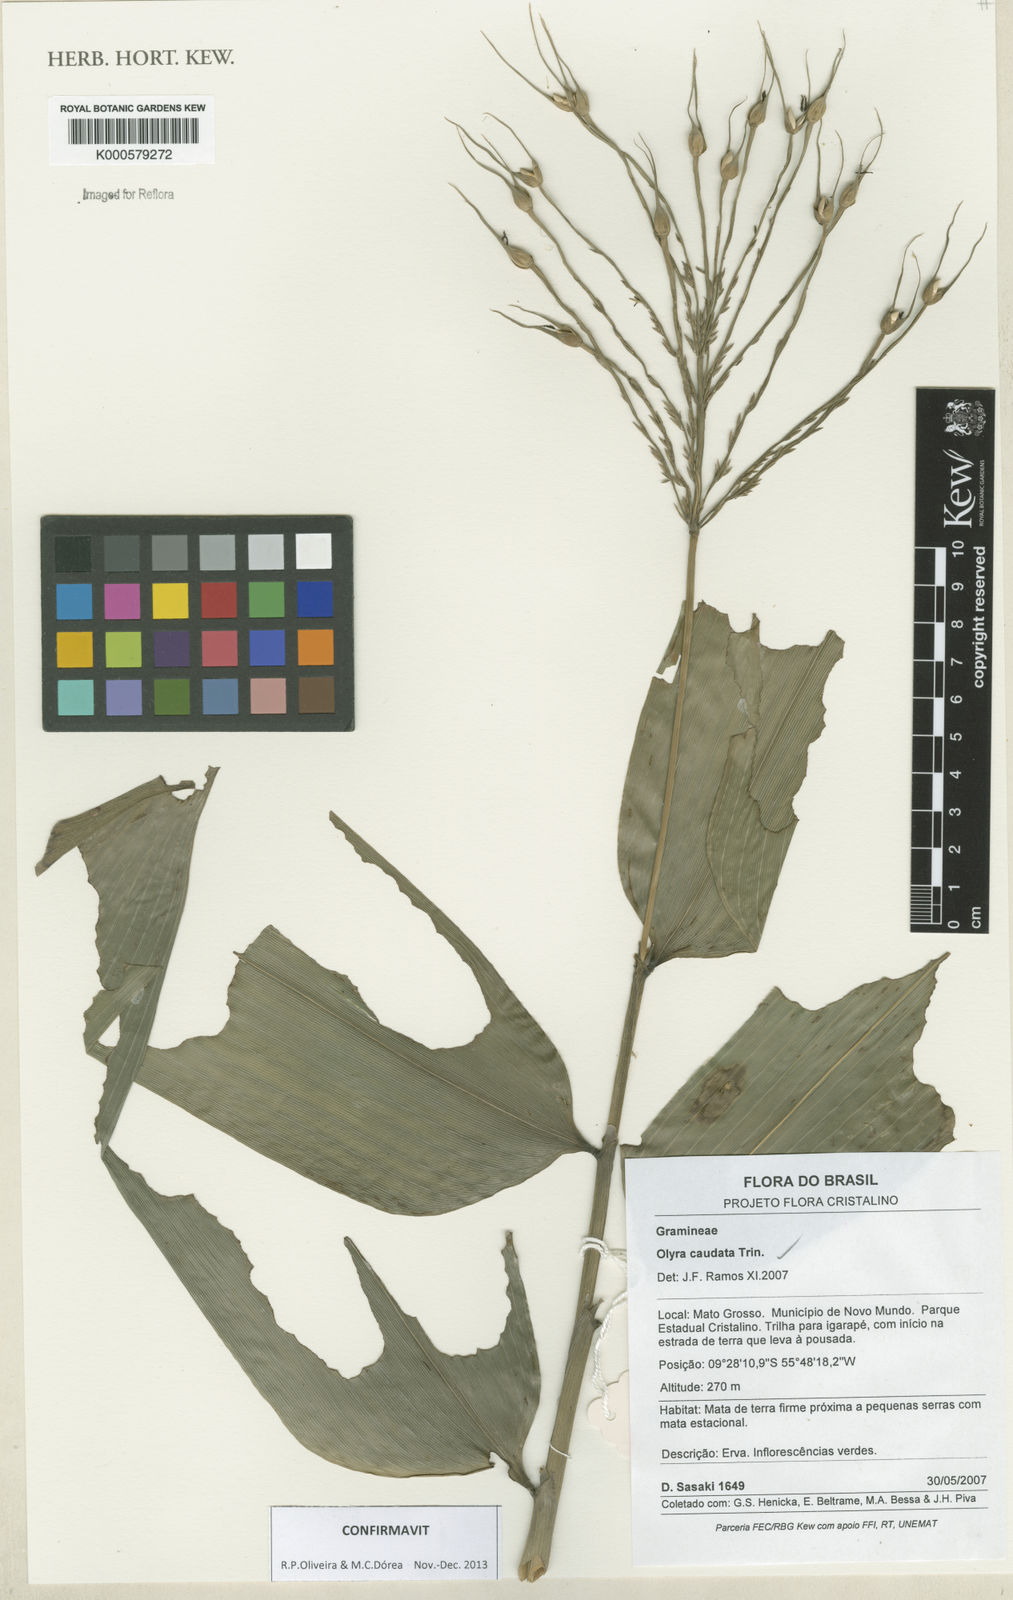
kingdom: Plantae
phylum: Tracheophyta
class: Liliopsida
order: Poales
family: Poaceae
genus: Olyra
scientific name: Olyra caudata
